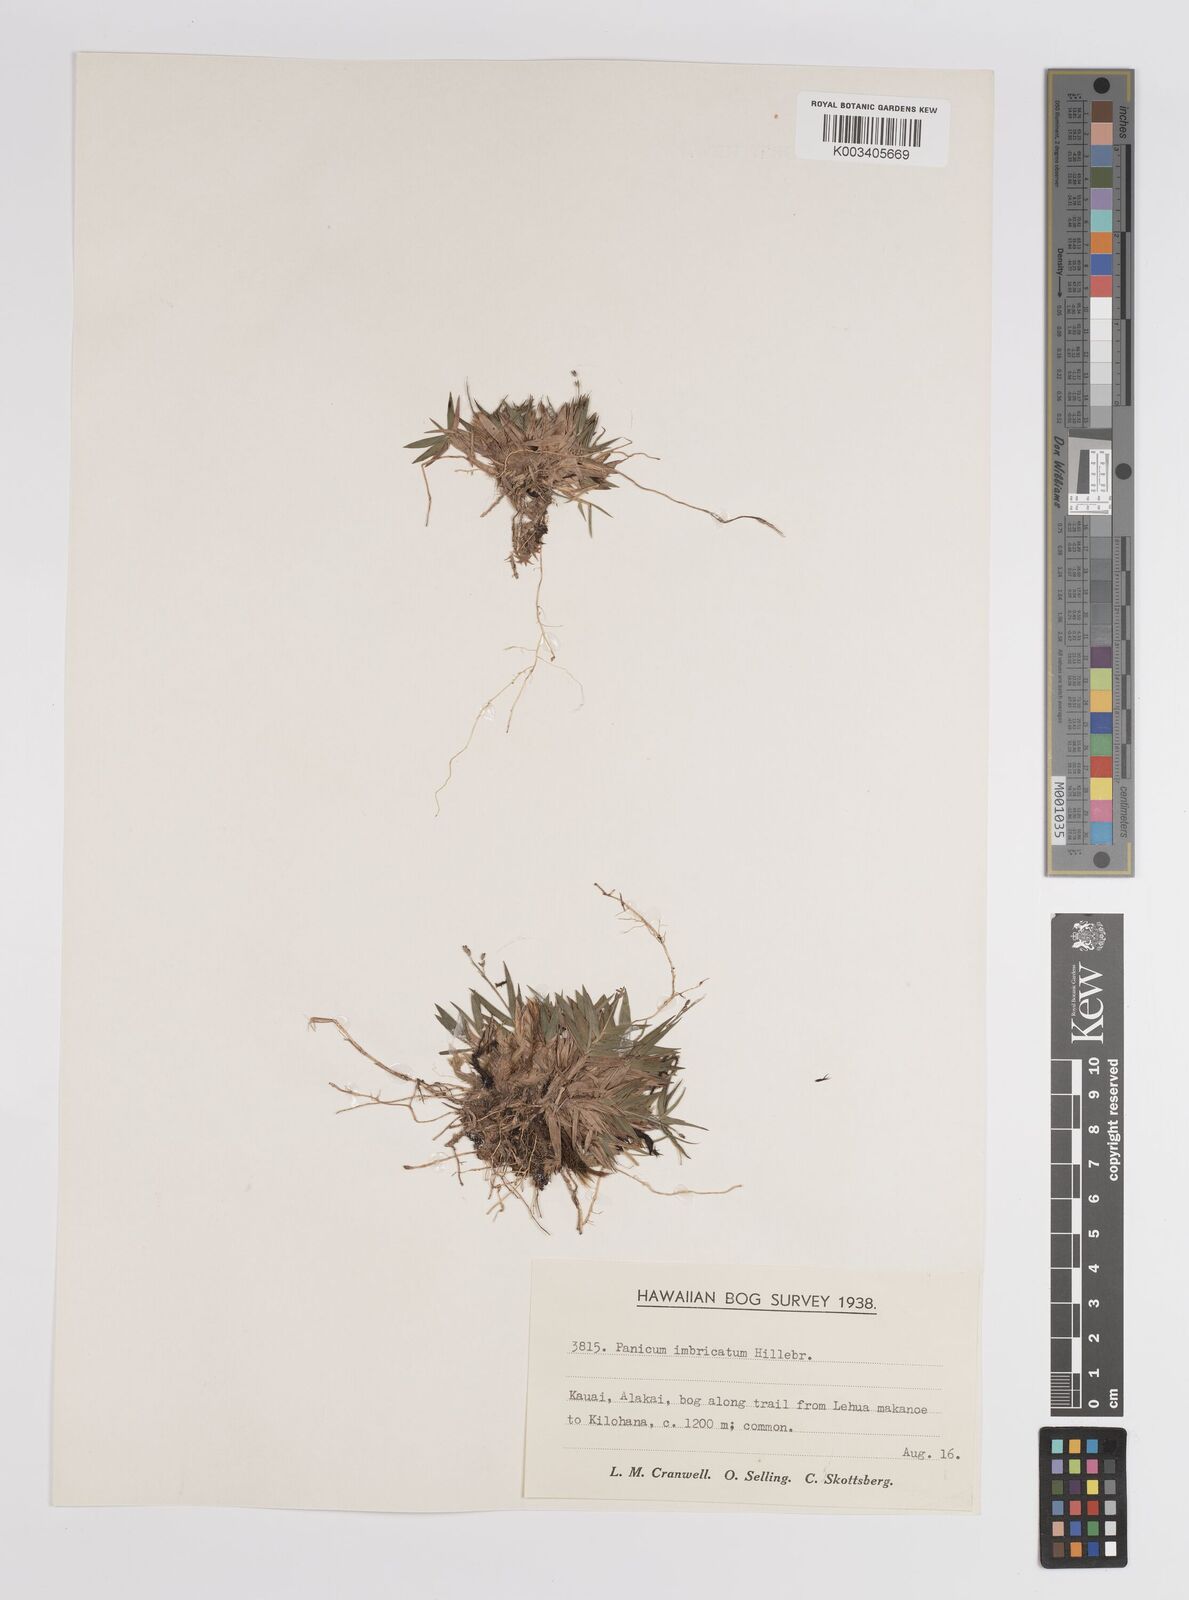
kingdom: Plantae
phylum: Tracheophyta
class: Liliopsida
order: Poales
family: Poaceae
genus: Dichanthelium
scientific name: Dichanthelium hillebrandianum
